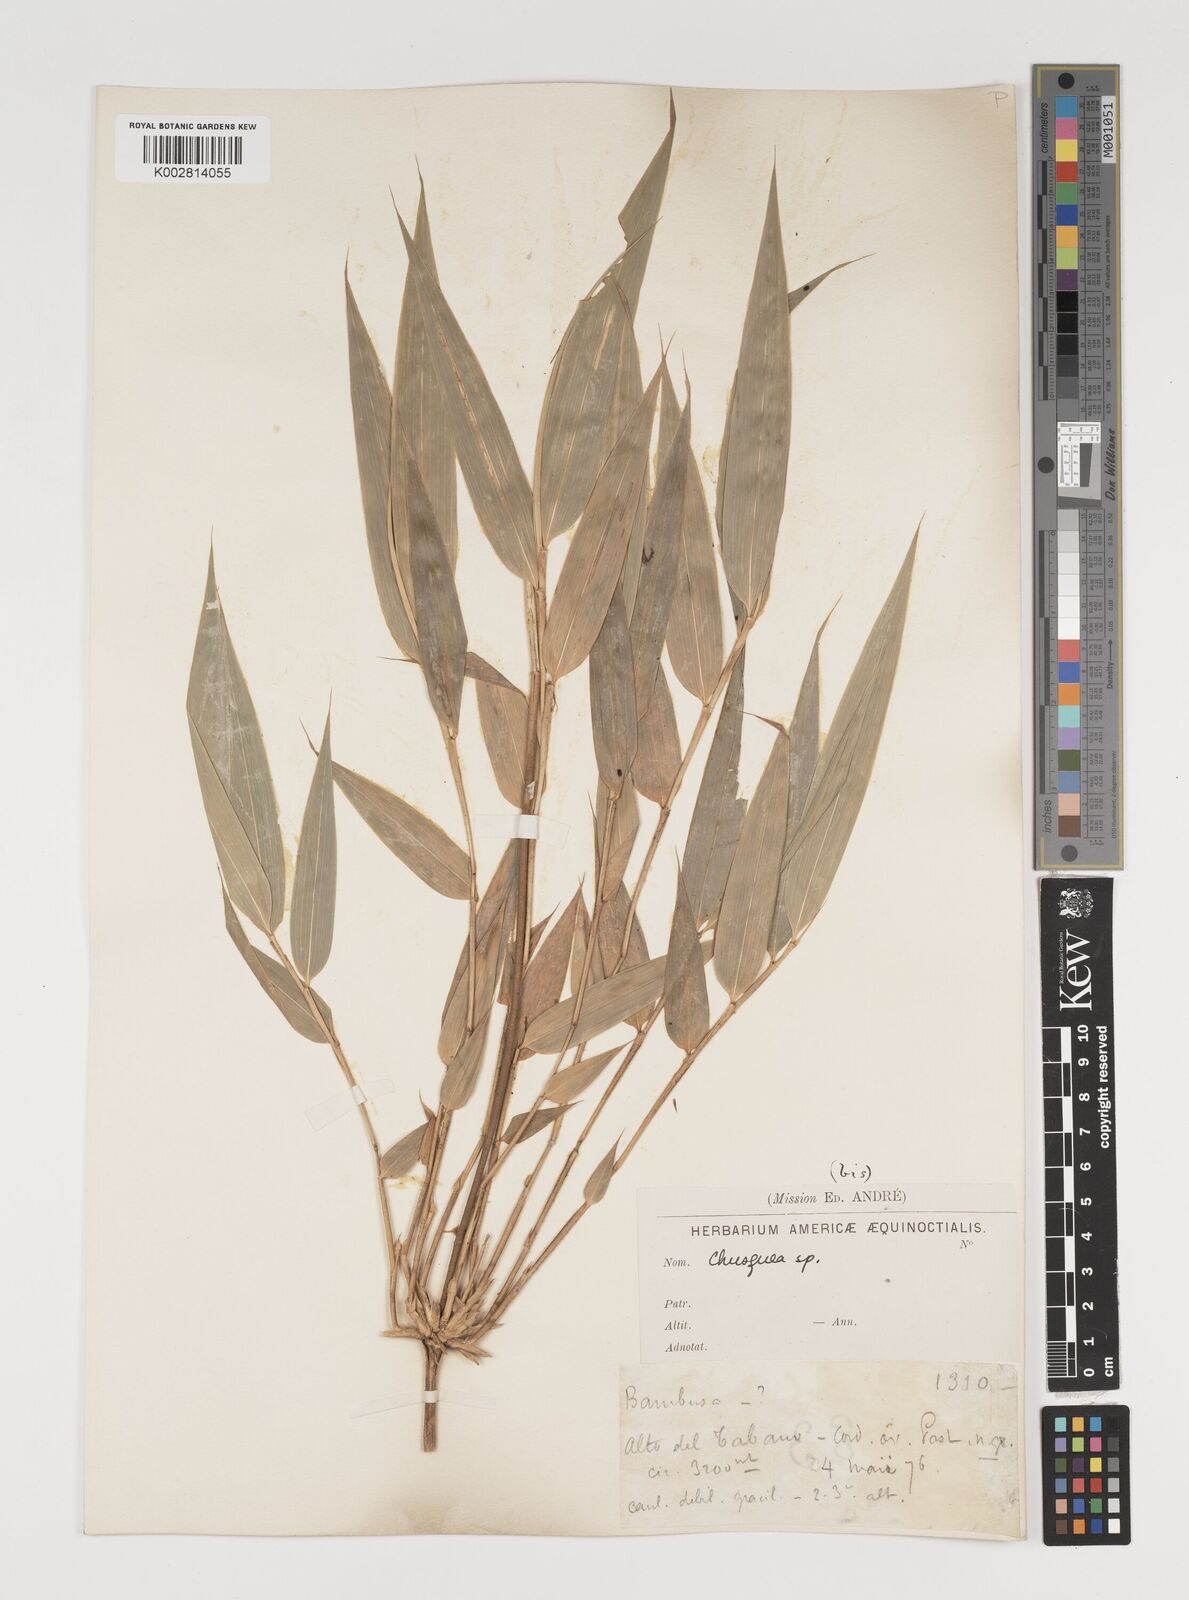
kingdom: Plantae
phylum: Tracheophyta
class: Liliopsida
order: Poales
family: Poaceae
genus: Chusquea
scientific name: Chusquea
